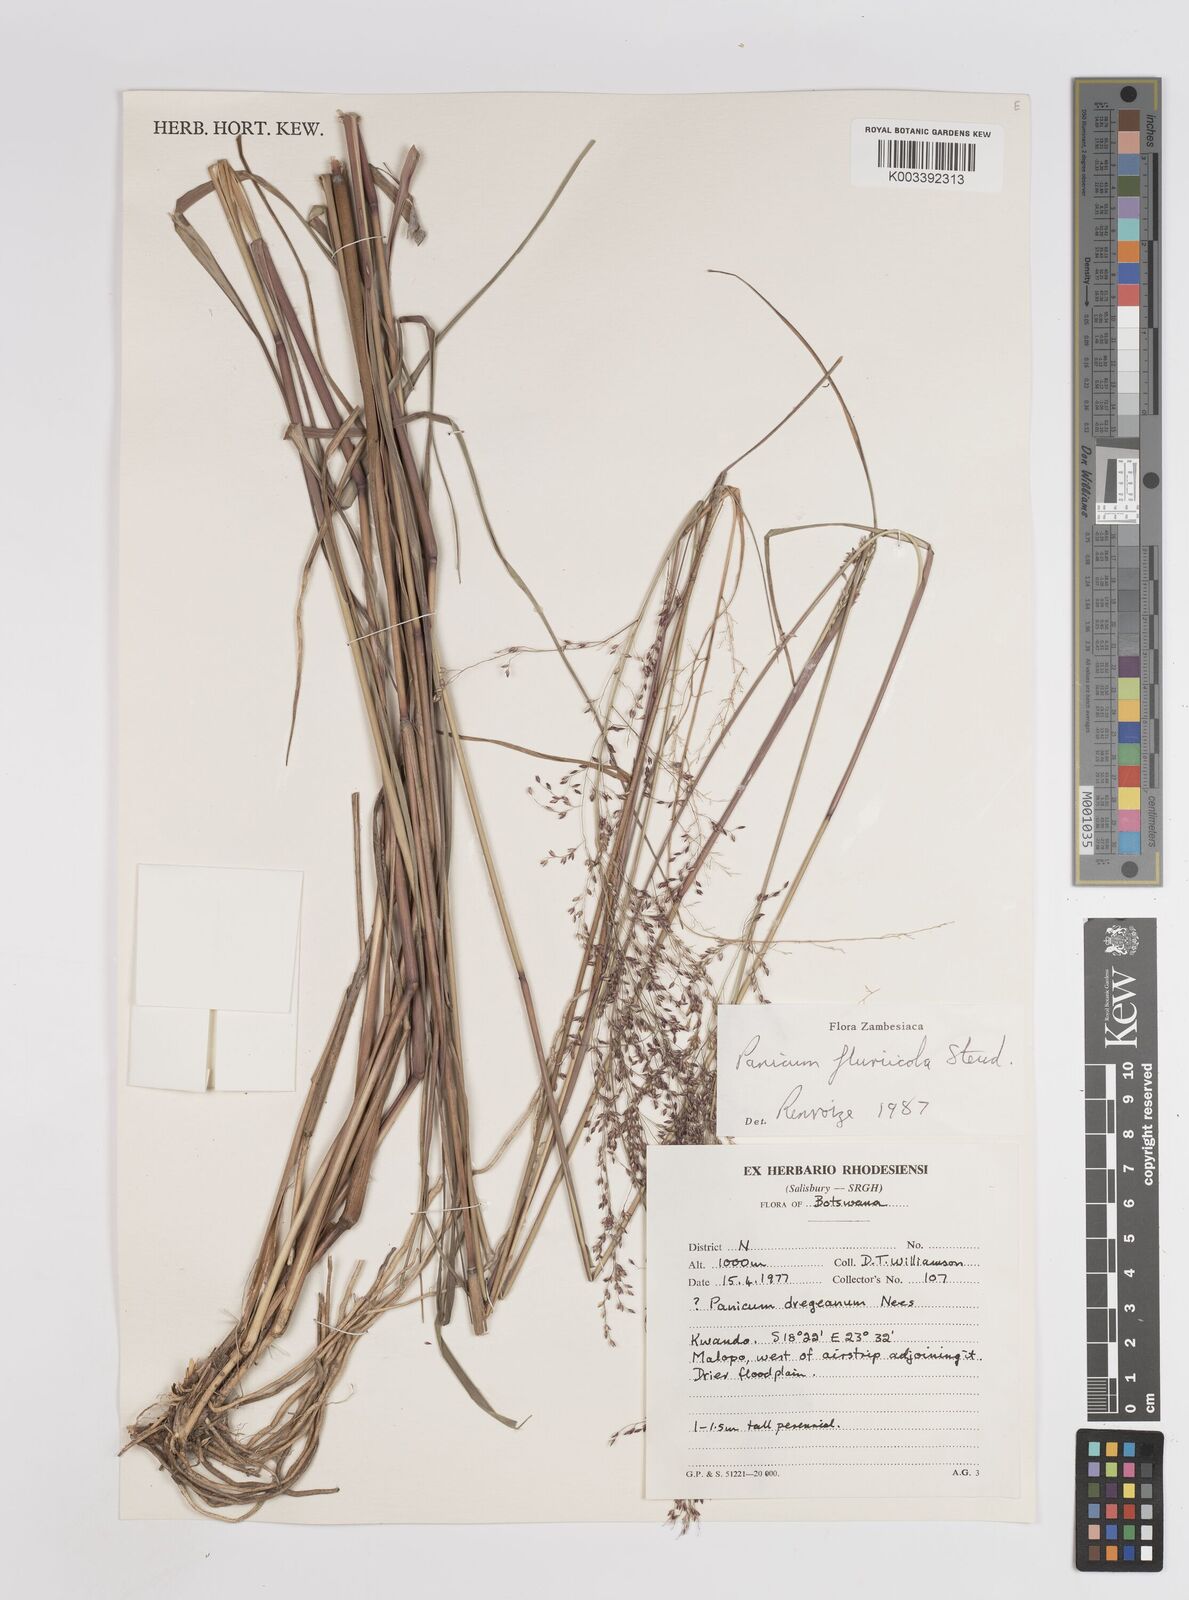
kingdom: Plantae
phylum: Tracheophyta
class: Liliopsida
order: Poales
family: Poaceae
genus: Panicum
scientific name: Panicum fluviicola
